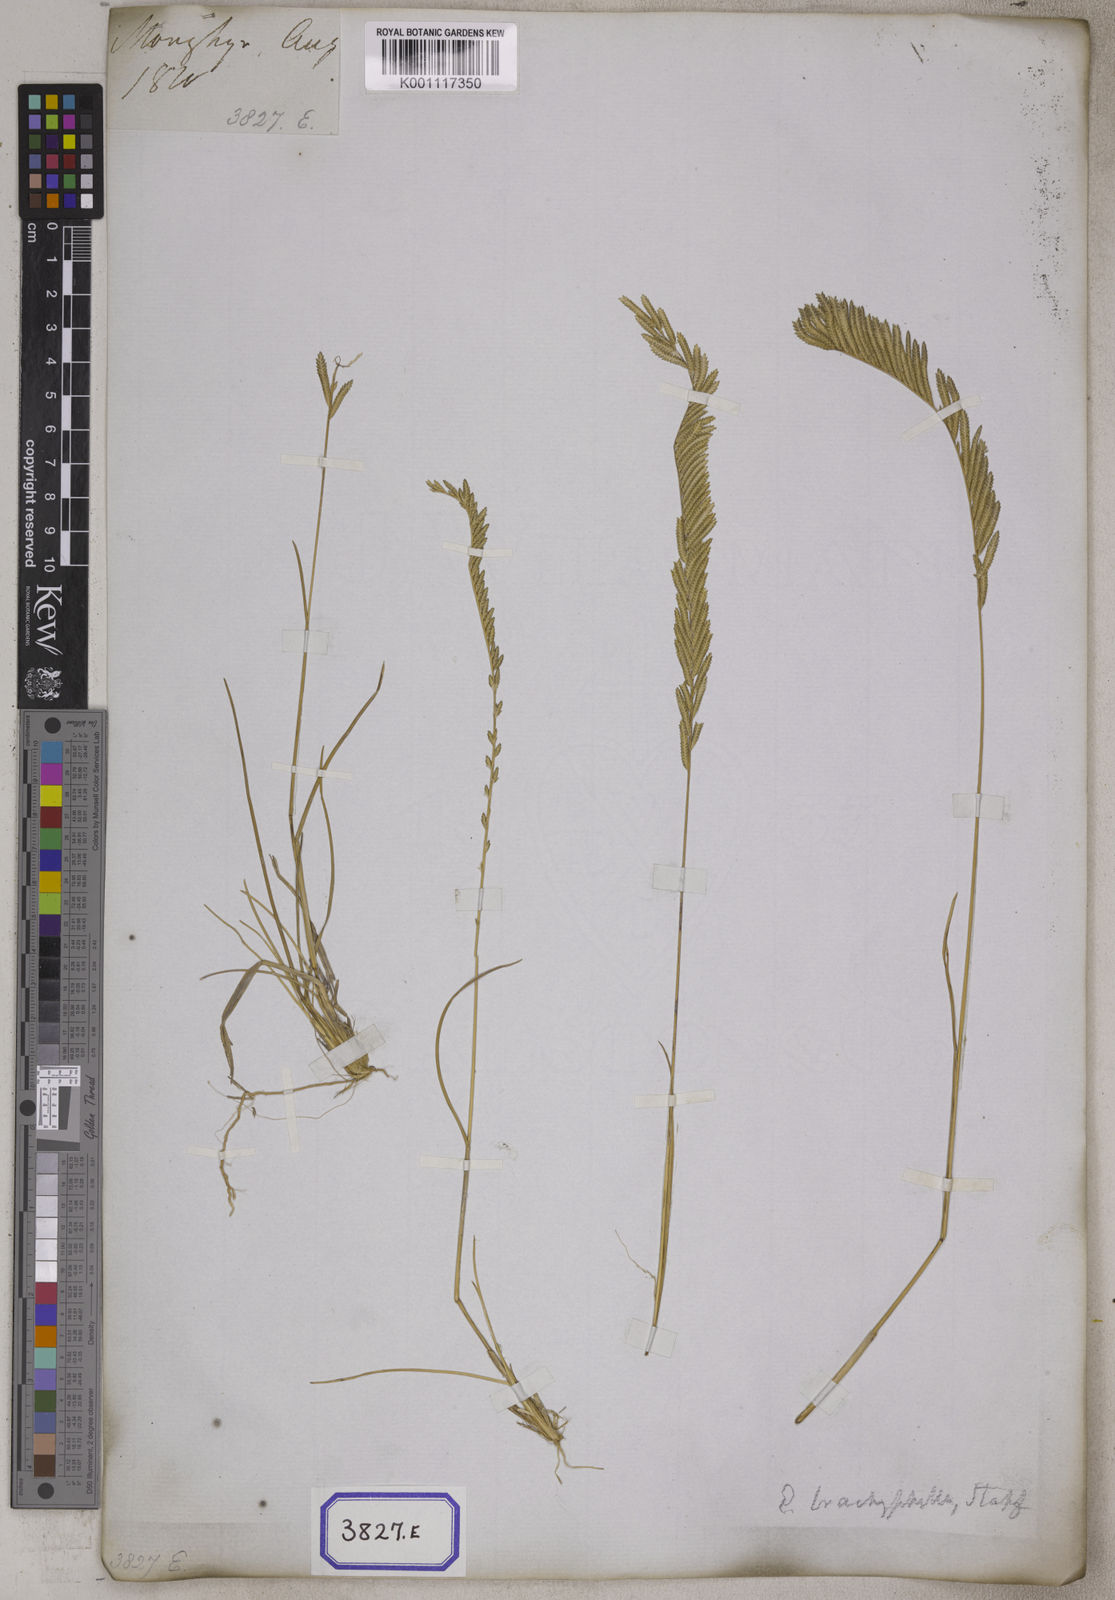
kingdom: Plantae
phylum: Tracheophyta
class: Liliopsida
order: Poales
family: Poaceae
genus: Eragrostis
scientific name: Eragrostis
